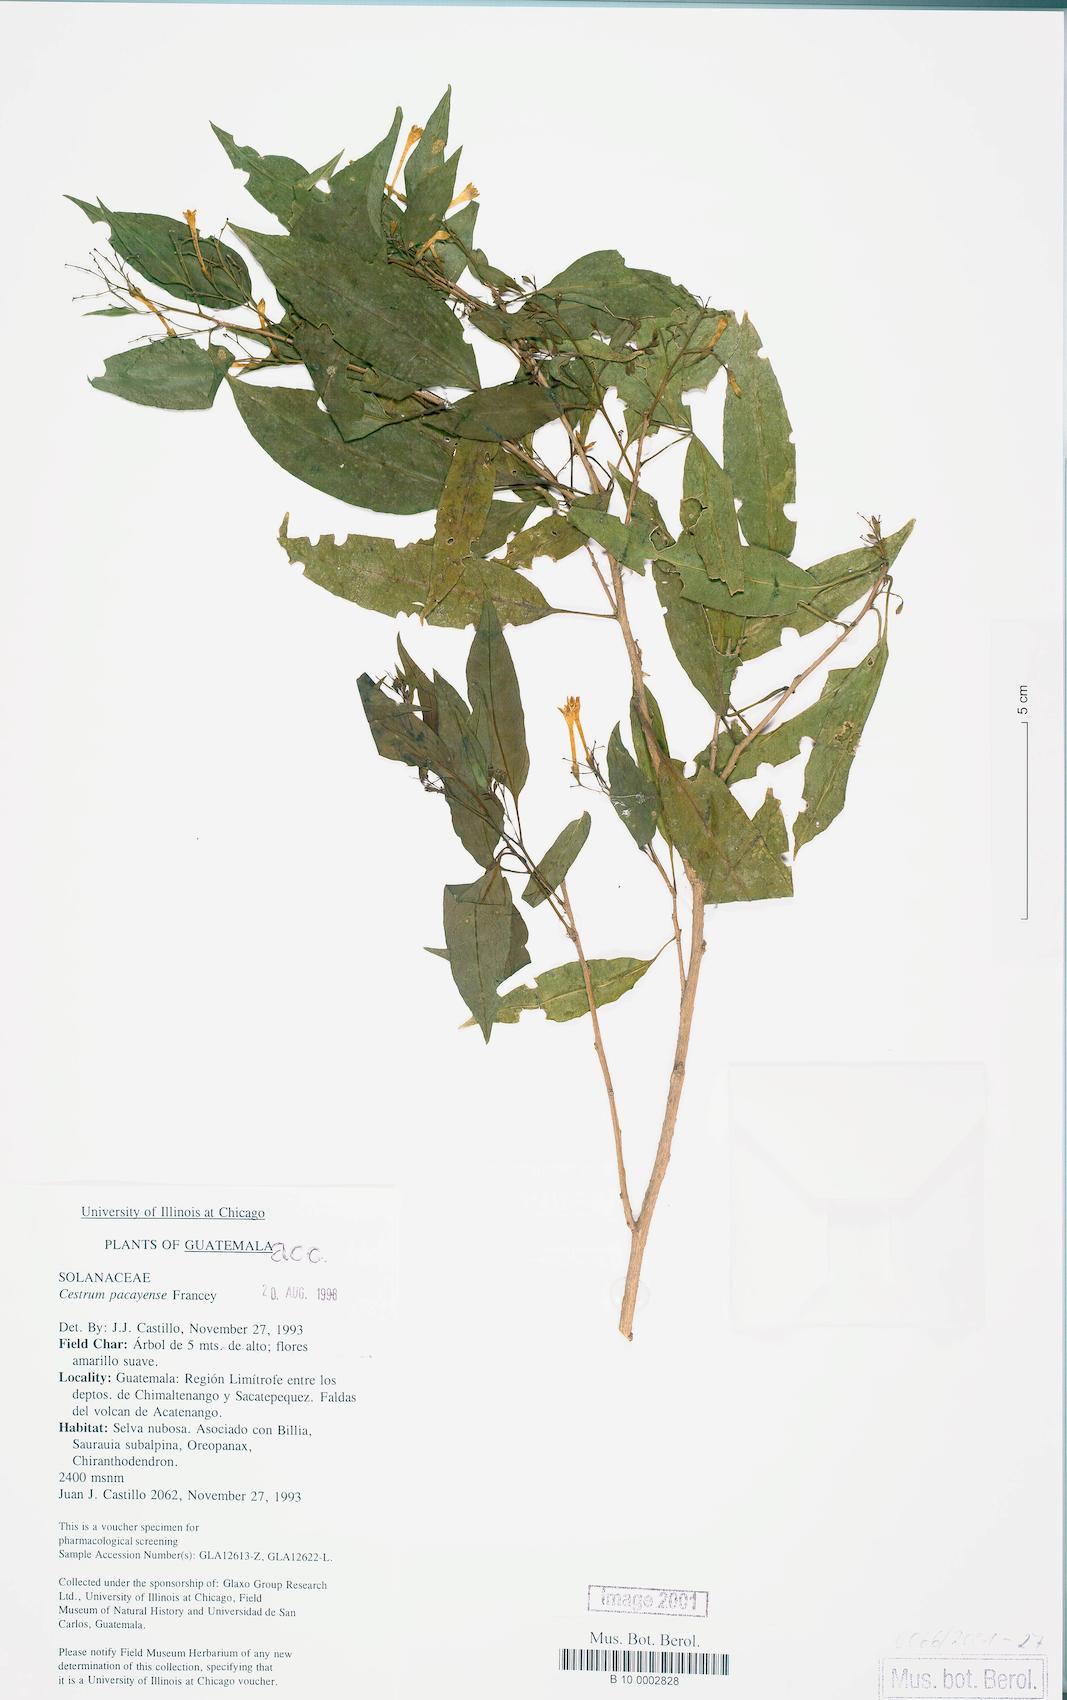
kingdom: Plantae
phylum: Tracheophyta
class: Magnoliopsida
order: Solanales
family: Solanaceae
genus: Cestrum
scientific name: Cestrum guatemalense
